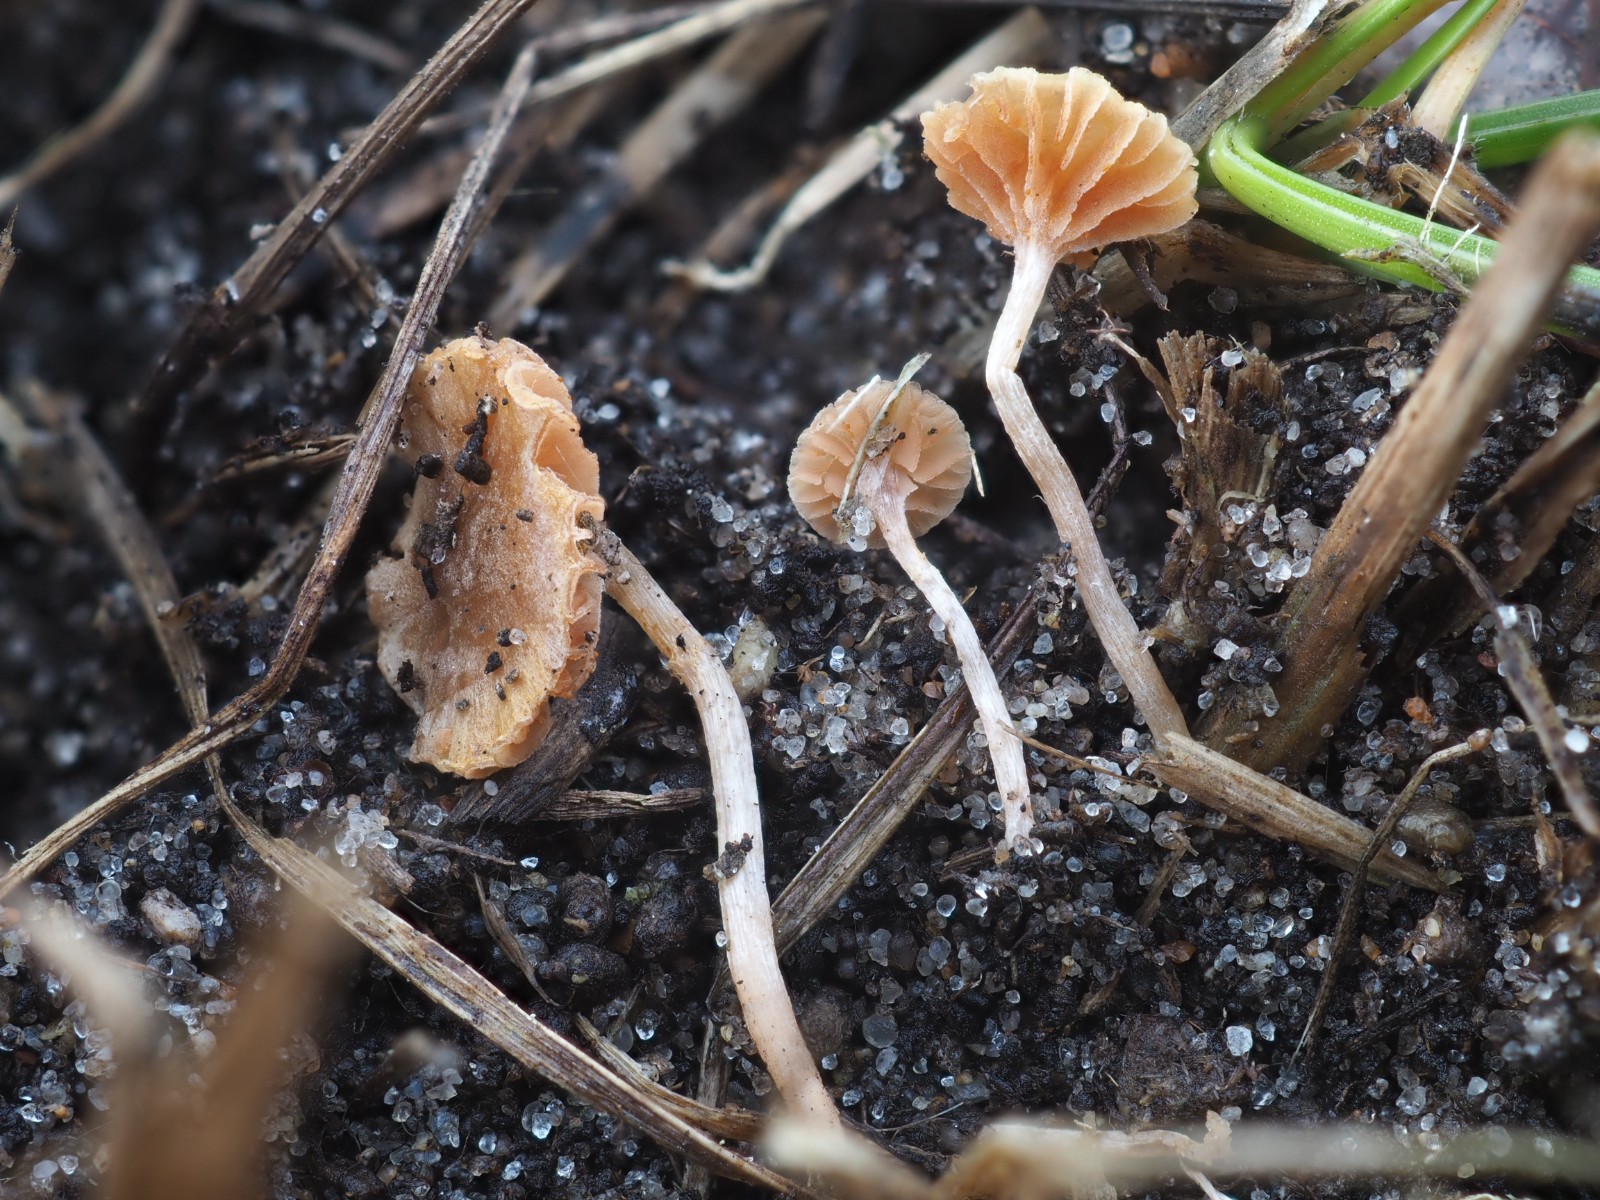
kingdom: Fungi
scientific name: Fungi
